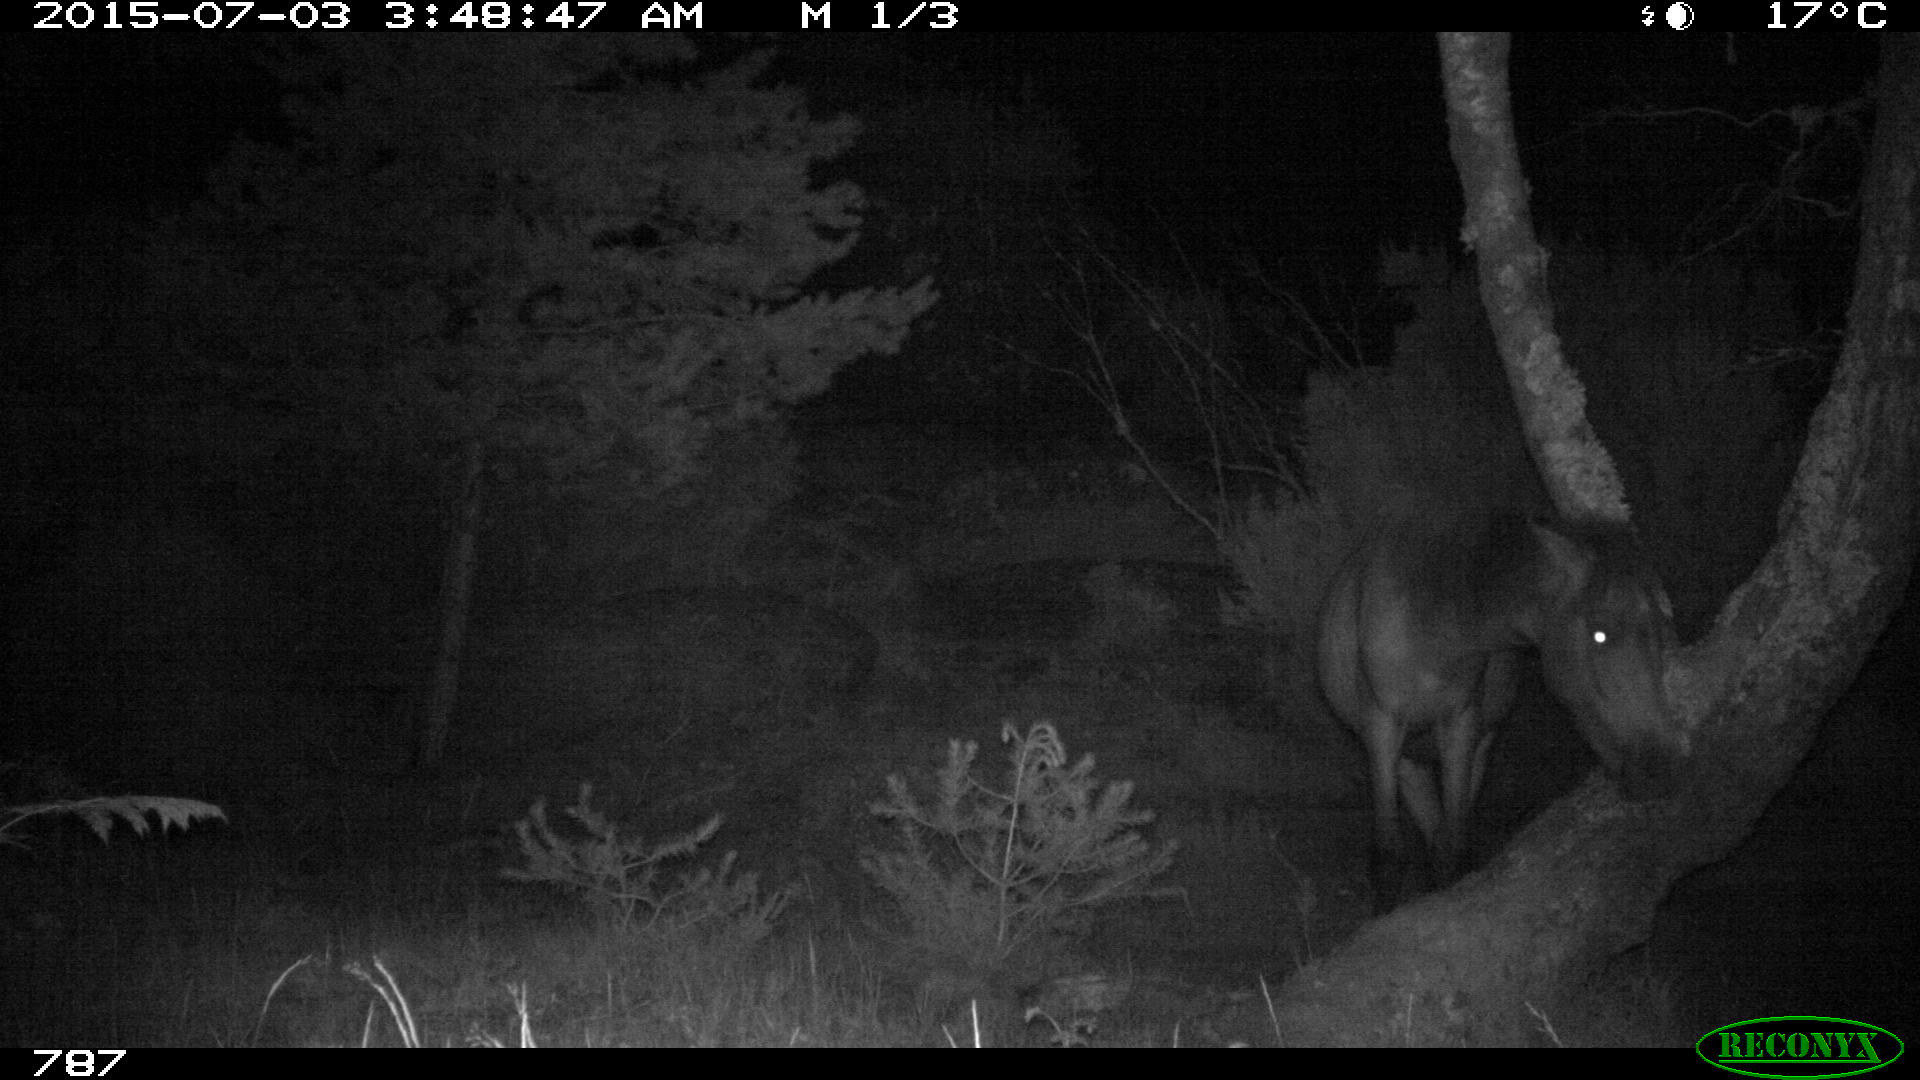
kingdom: Animalia
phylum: Chordata
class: Mammalia
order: Perissodactyla
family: Equidae
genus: Equus
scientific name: Equus caballus
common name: Horse
